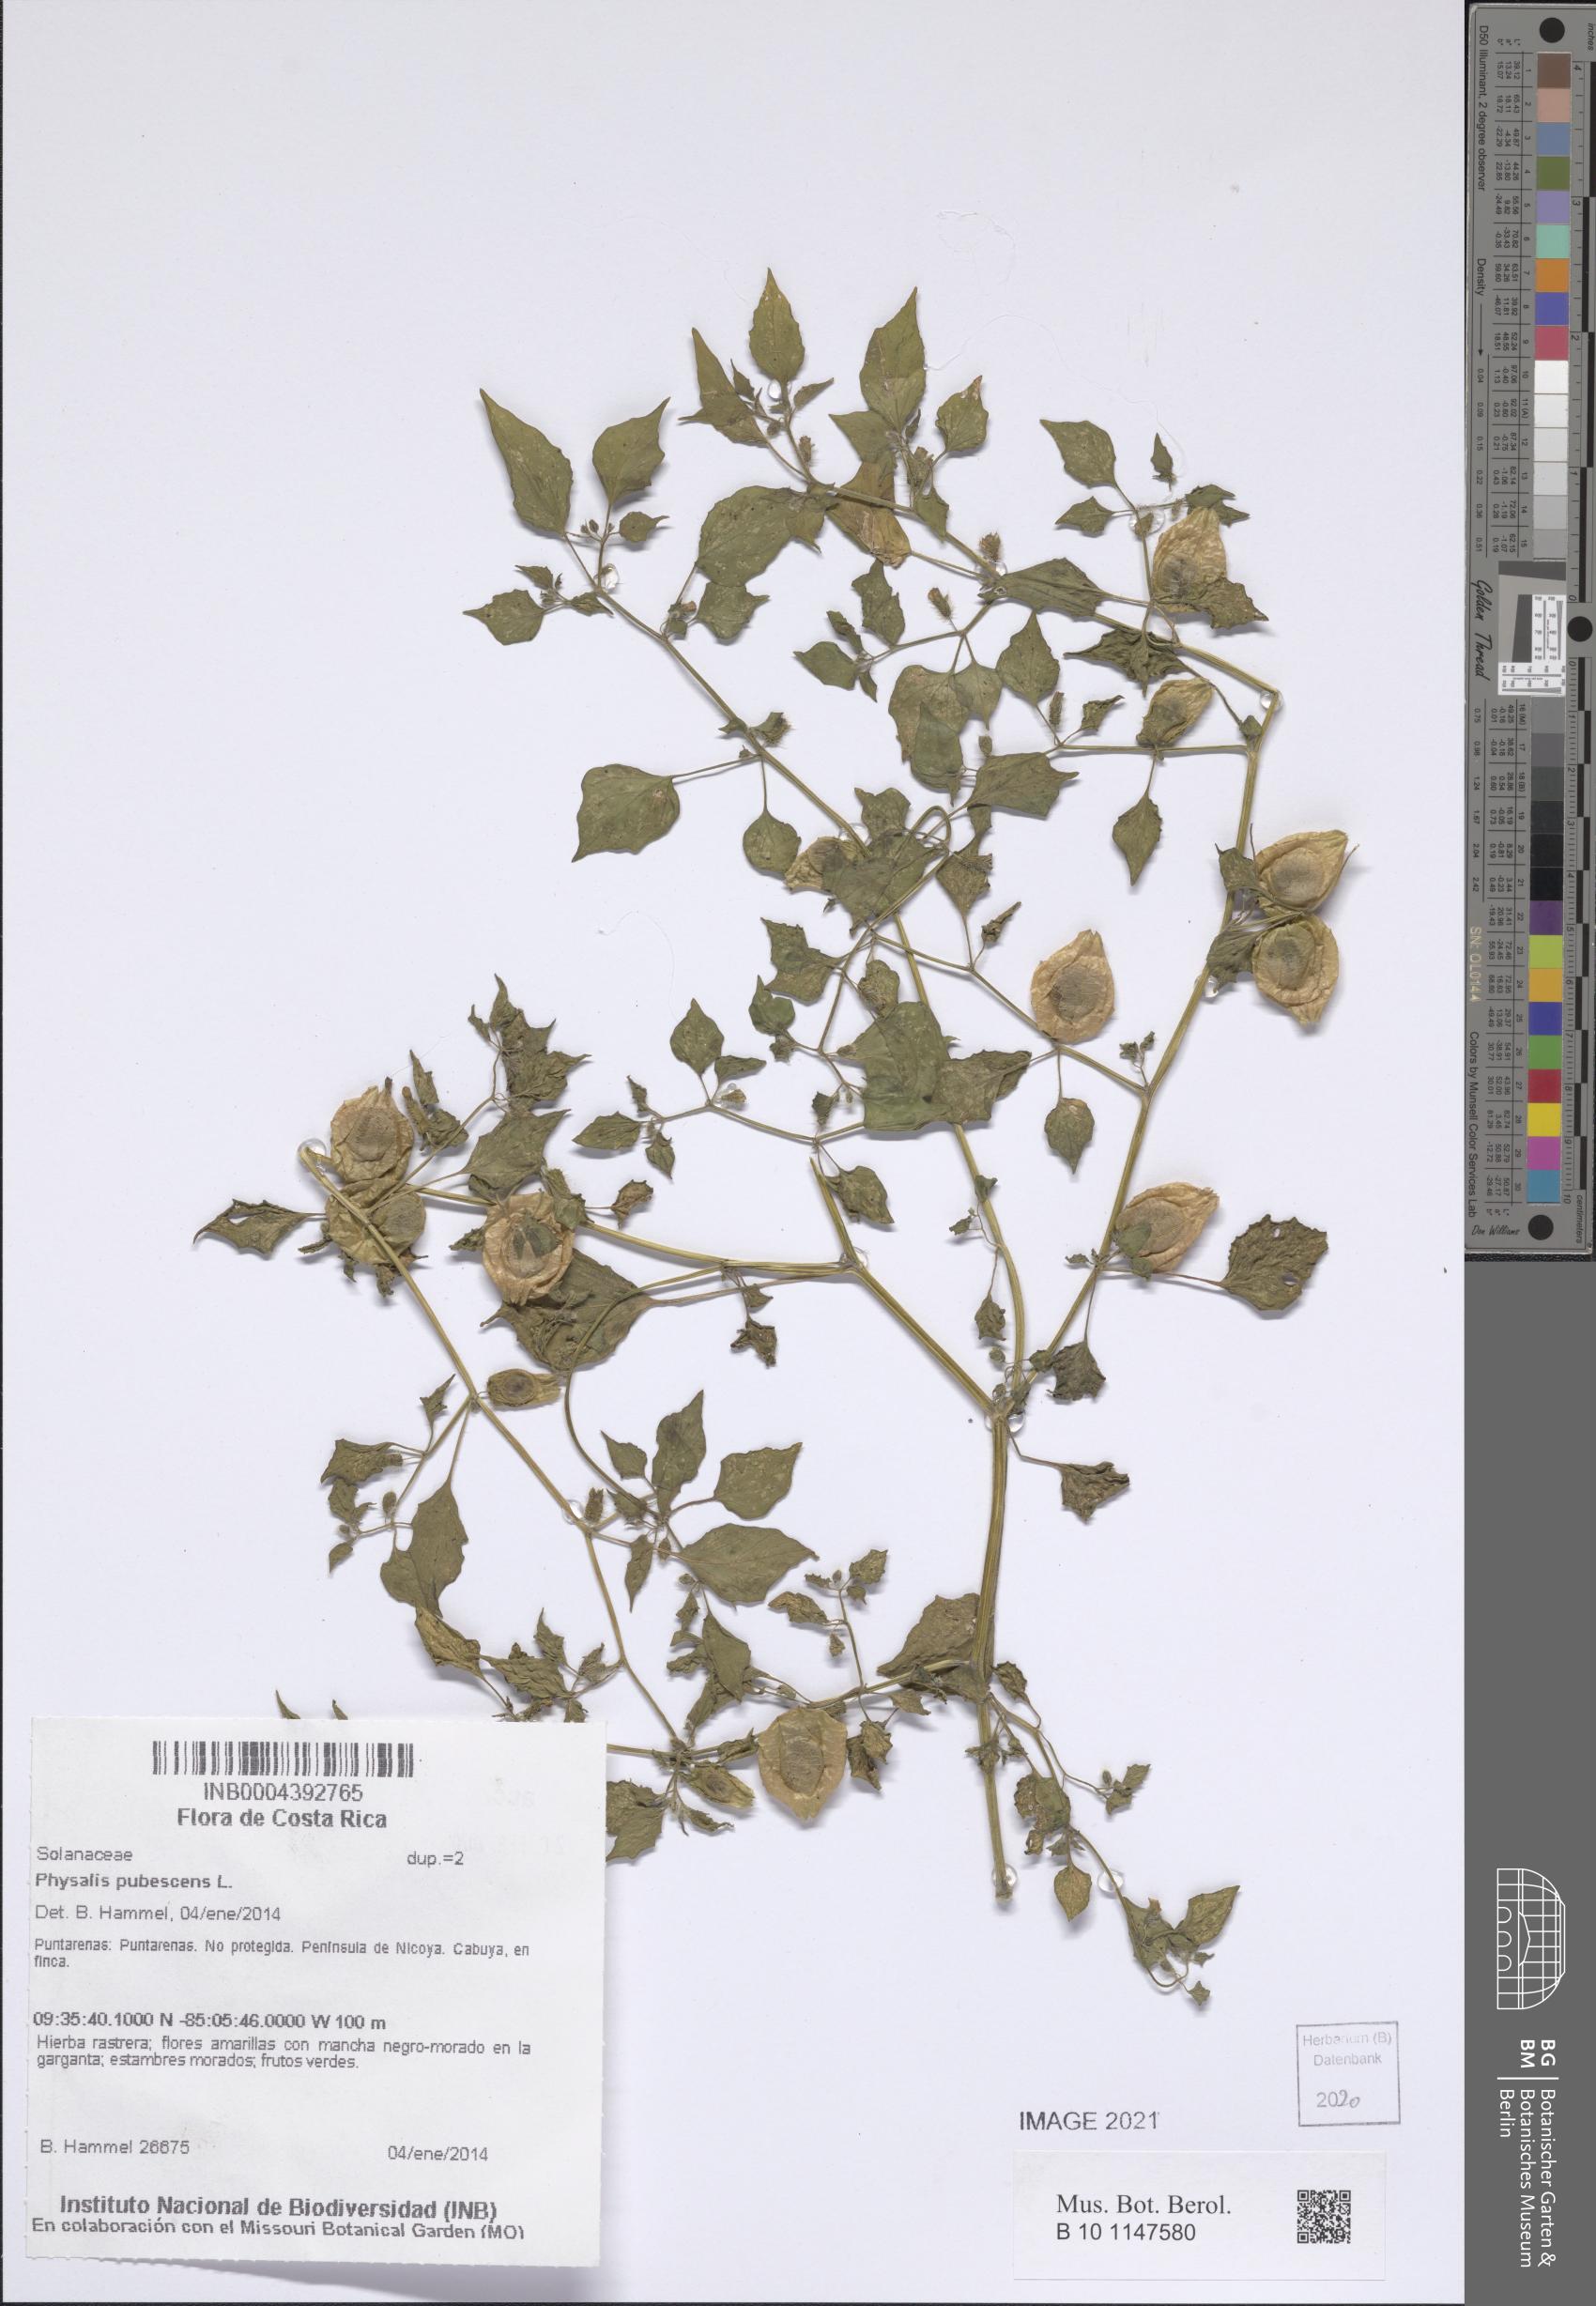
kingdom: Plantae
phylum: Tracheophyta
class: Magnoliopsida
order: Solanales
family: Solanaceae
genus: Physalis
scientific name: Physalis pubescens
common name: Downy ground-cherry
